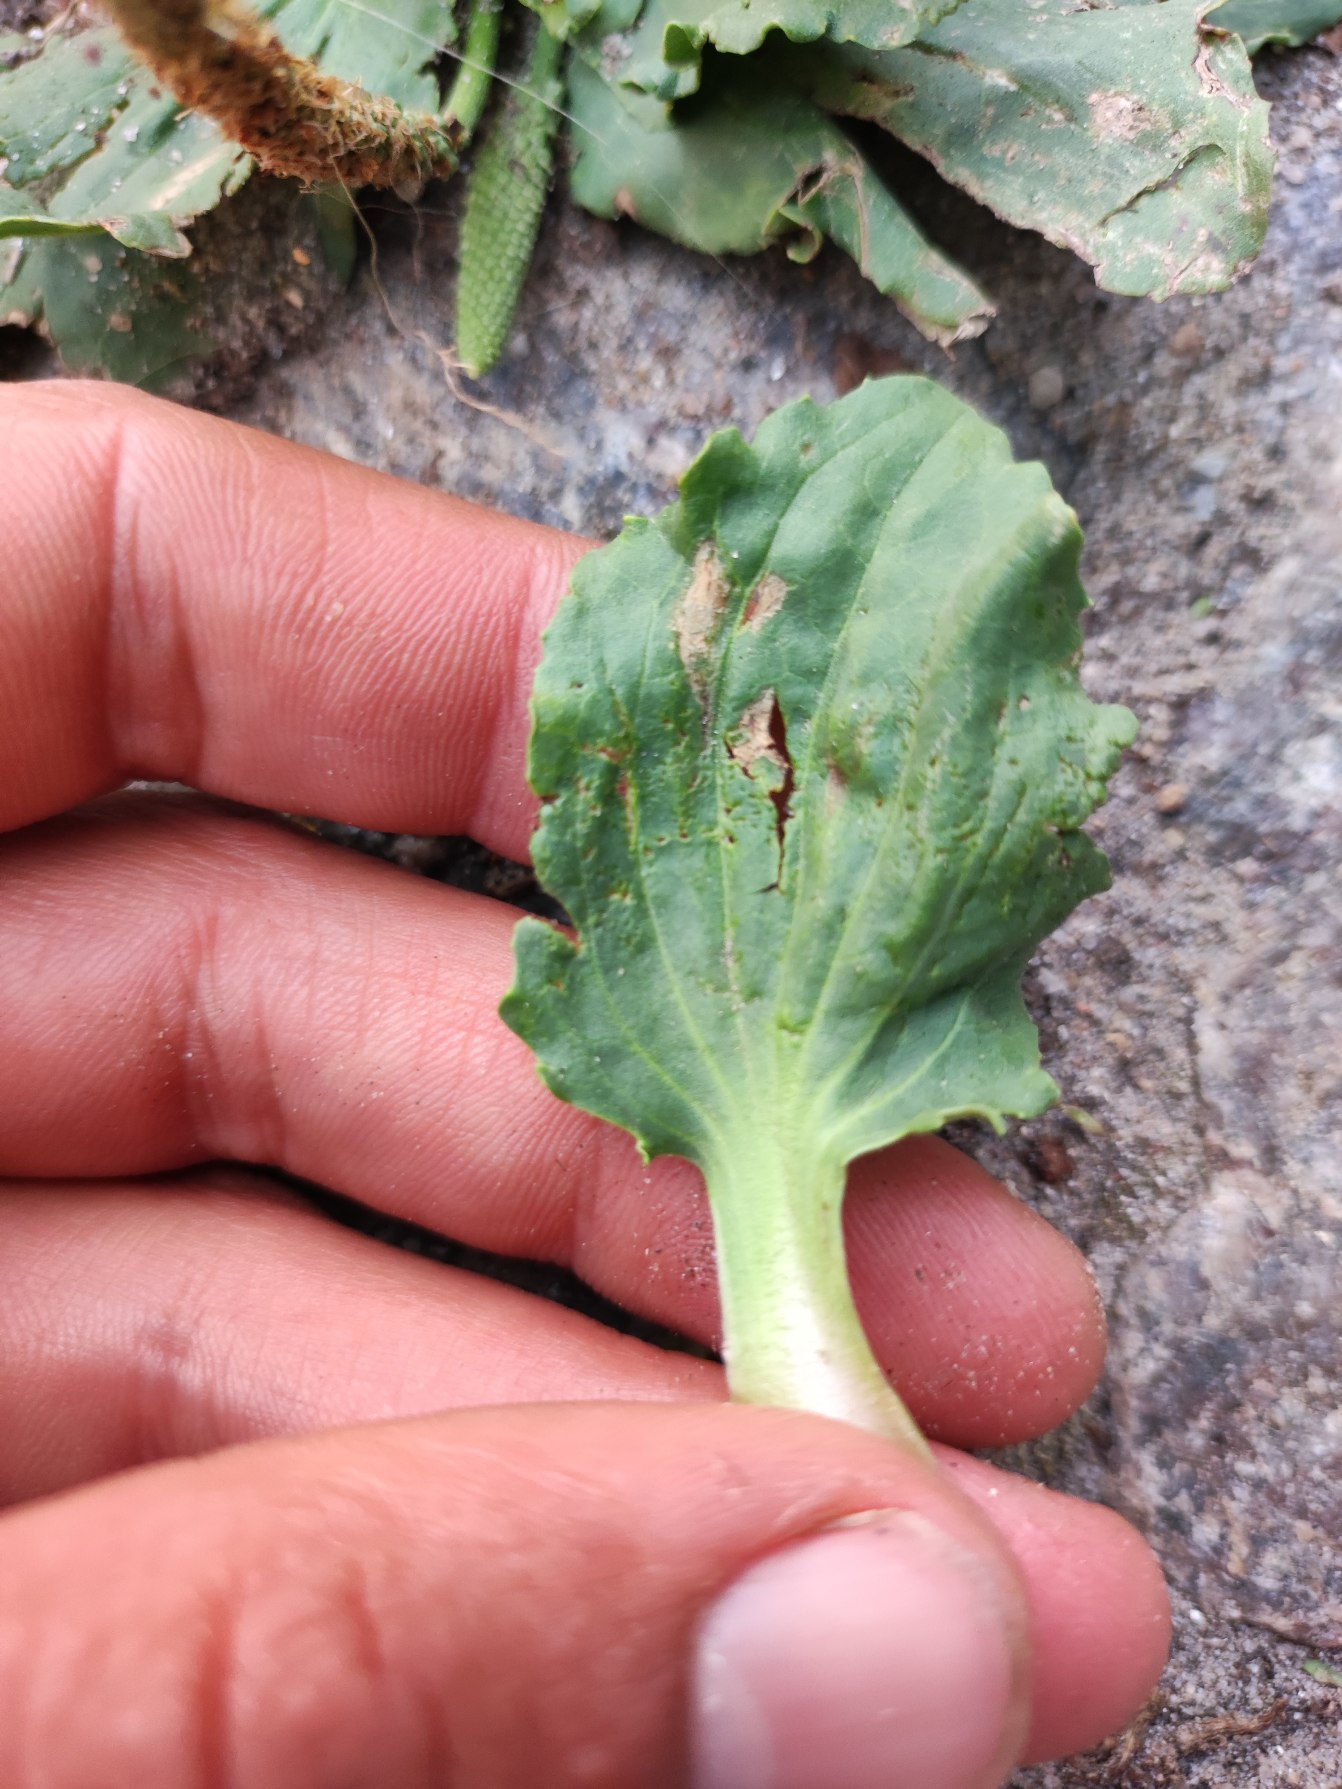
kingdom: Plantae
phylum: Tracheophyta
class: Magnoliopsida
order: Lamiales
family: Plantaginaceae
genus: Plantago
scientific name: Plantago major
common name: Glat vejbred
